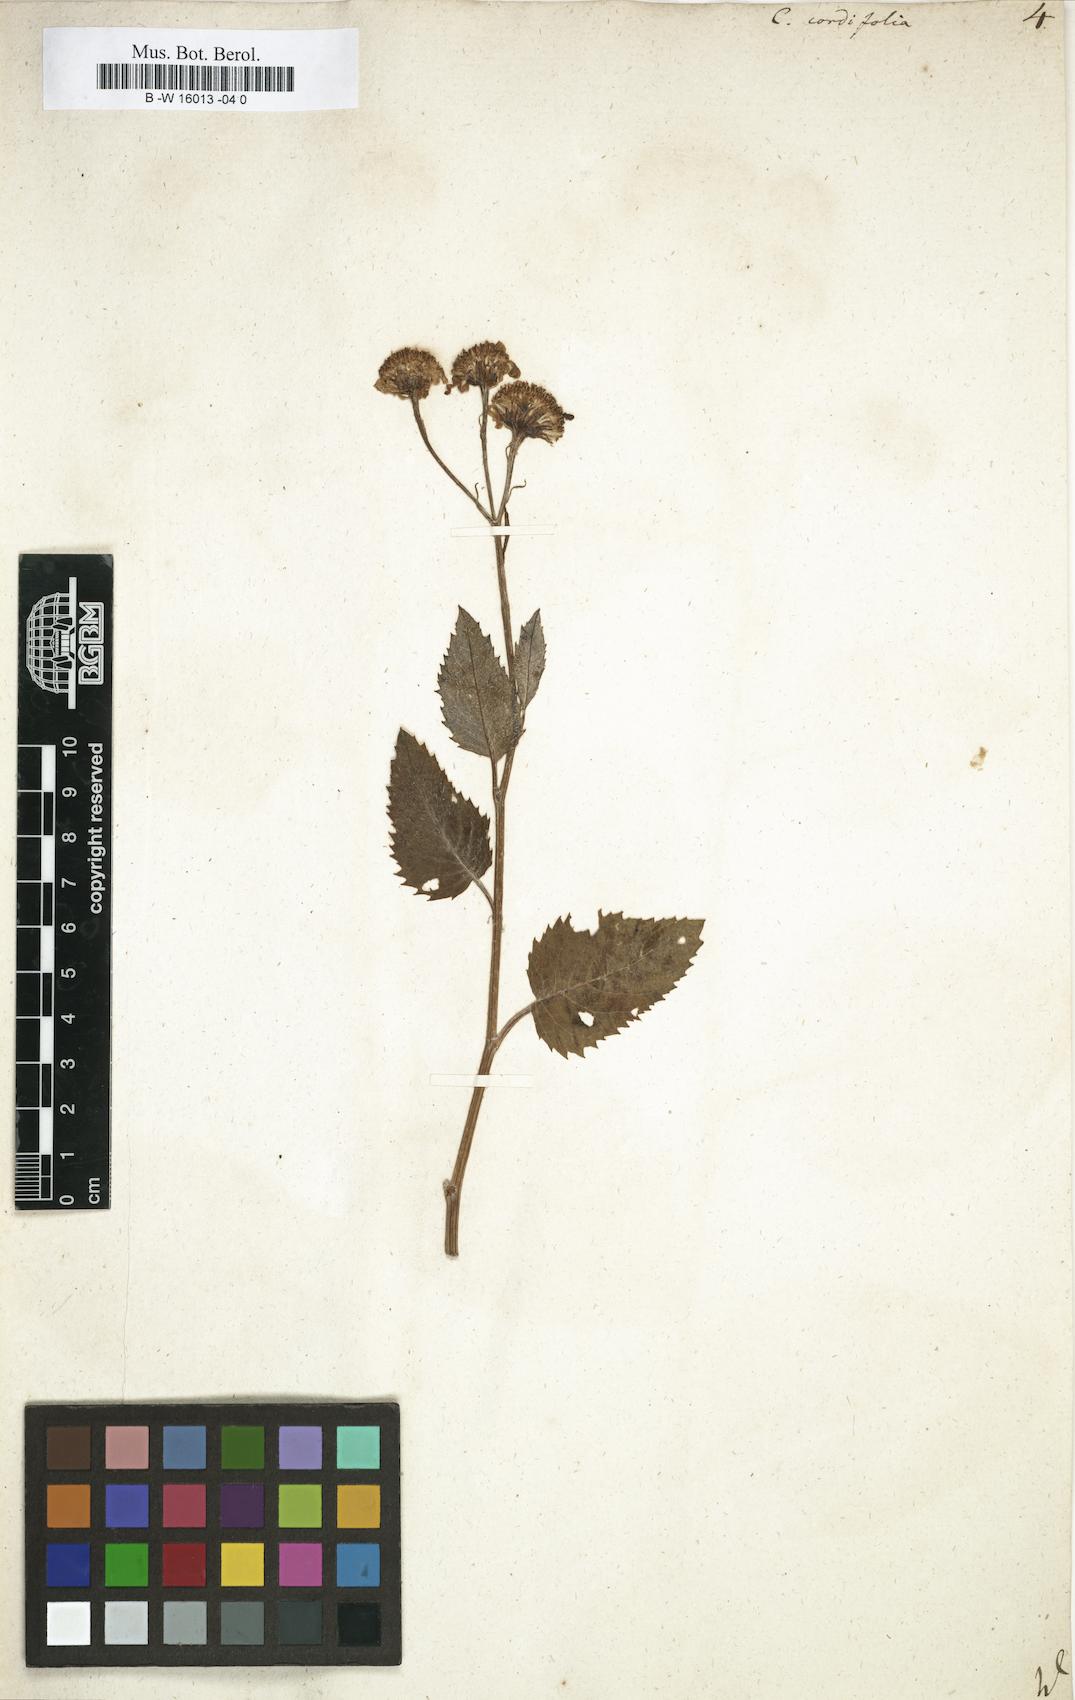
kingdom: Plantae
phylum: Tracheophyta
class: Magnoliopsida
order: Asterales
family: Asteraceae
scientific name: Asteraceae
